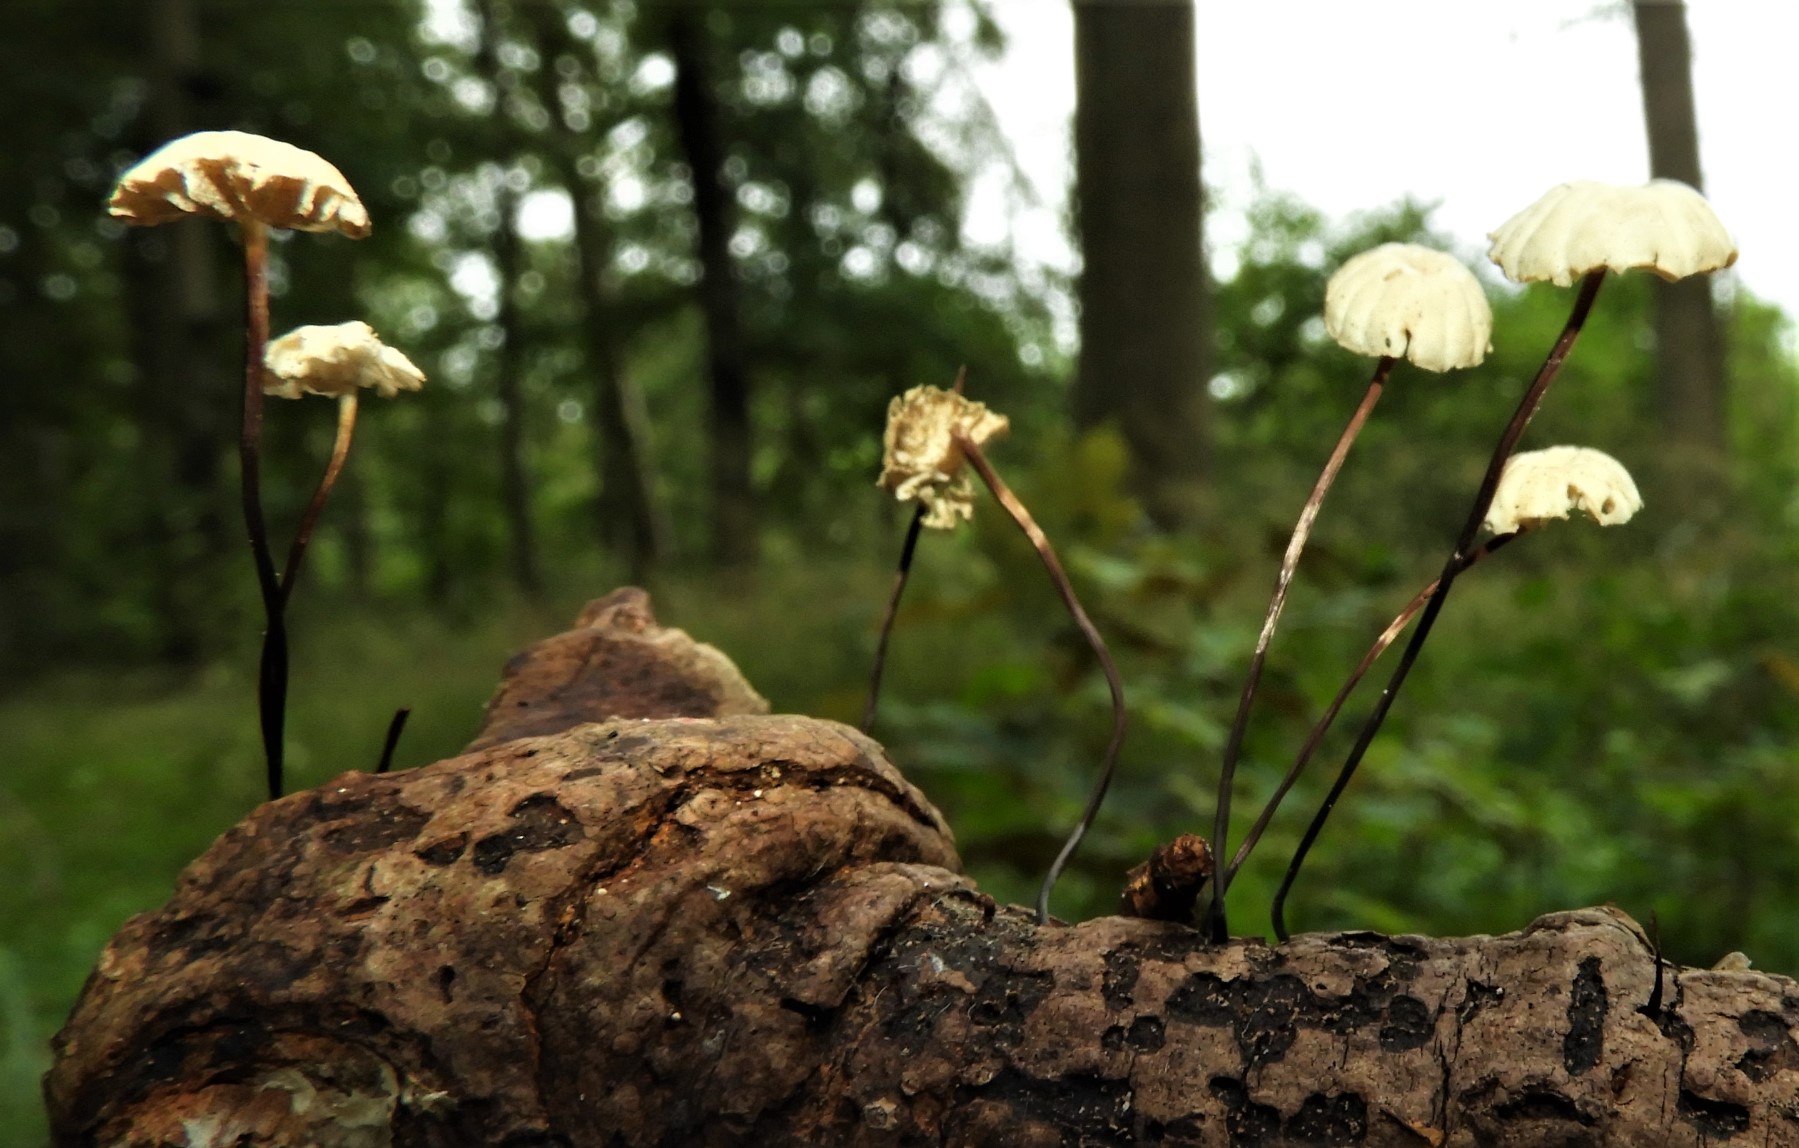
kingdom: Fungi
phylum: Basidiomycota
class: Agaricomycetes
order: Agaricales
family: Marasmiaceae
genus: Marasmius
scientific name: Marasmius rotula
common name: hjul-bruskhat
